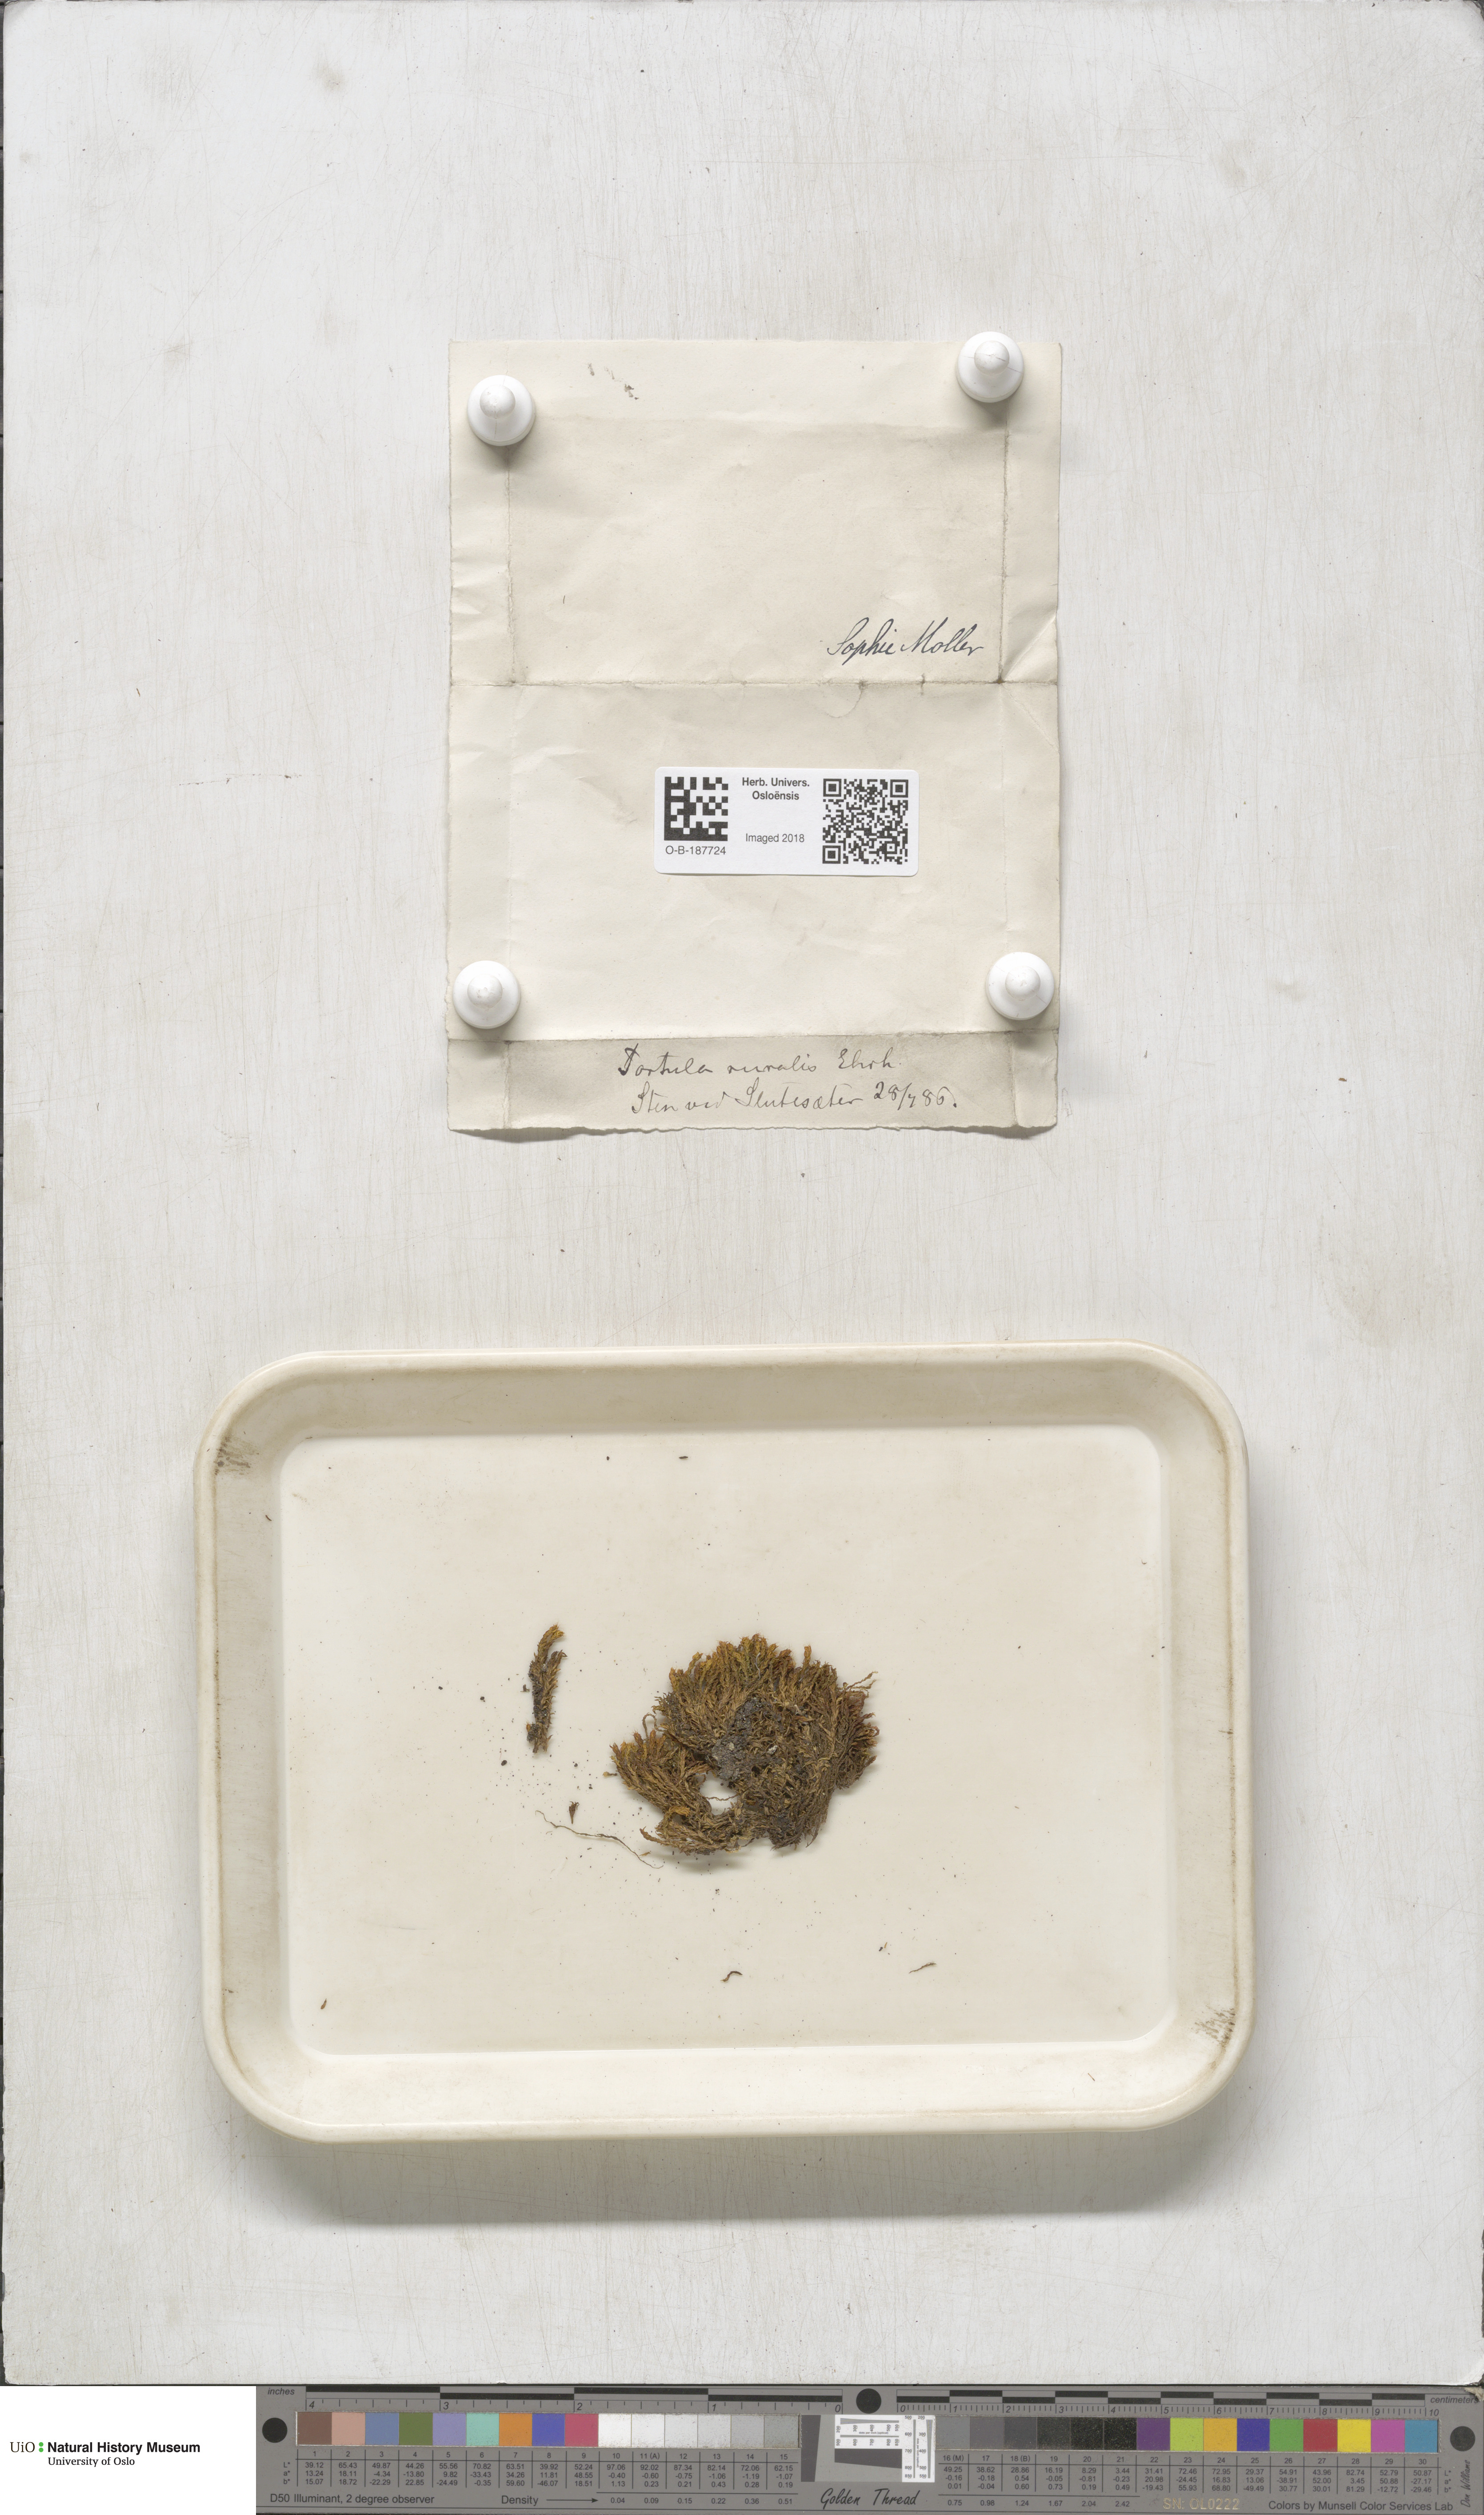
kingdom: Plantae
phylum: Bryophyta
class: Bryopsida
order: Pottiales
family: Pottiaceae
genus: Syntrichia
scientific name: Syntrichia ruralis
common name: Sidewalk screw moss
